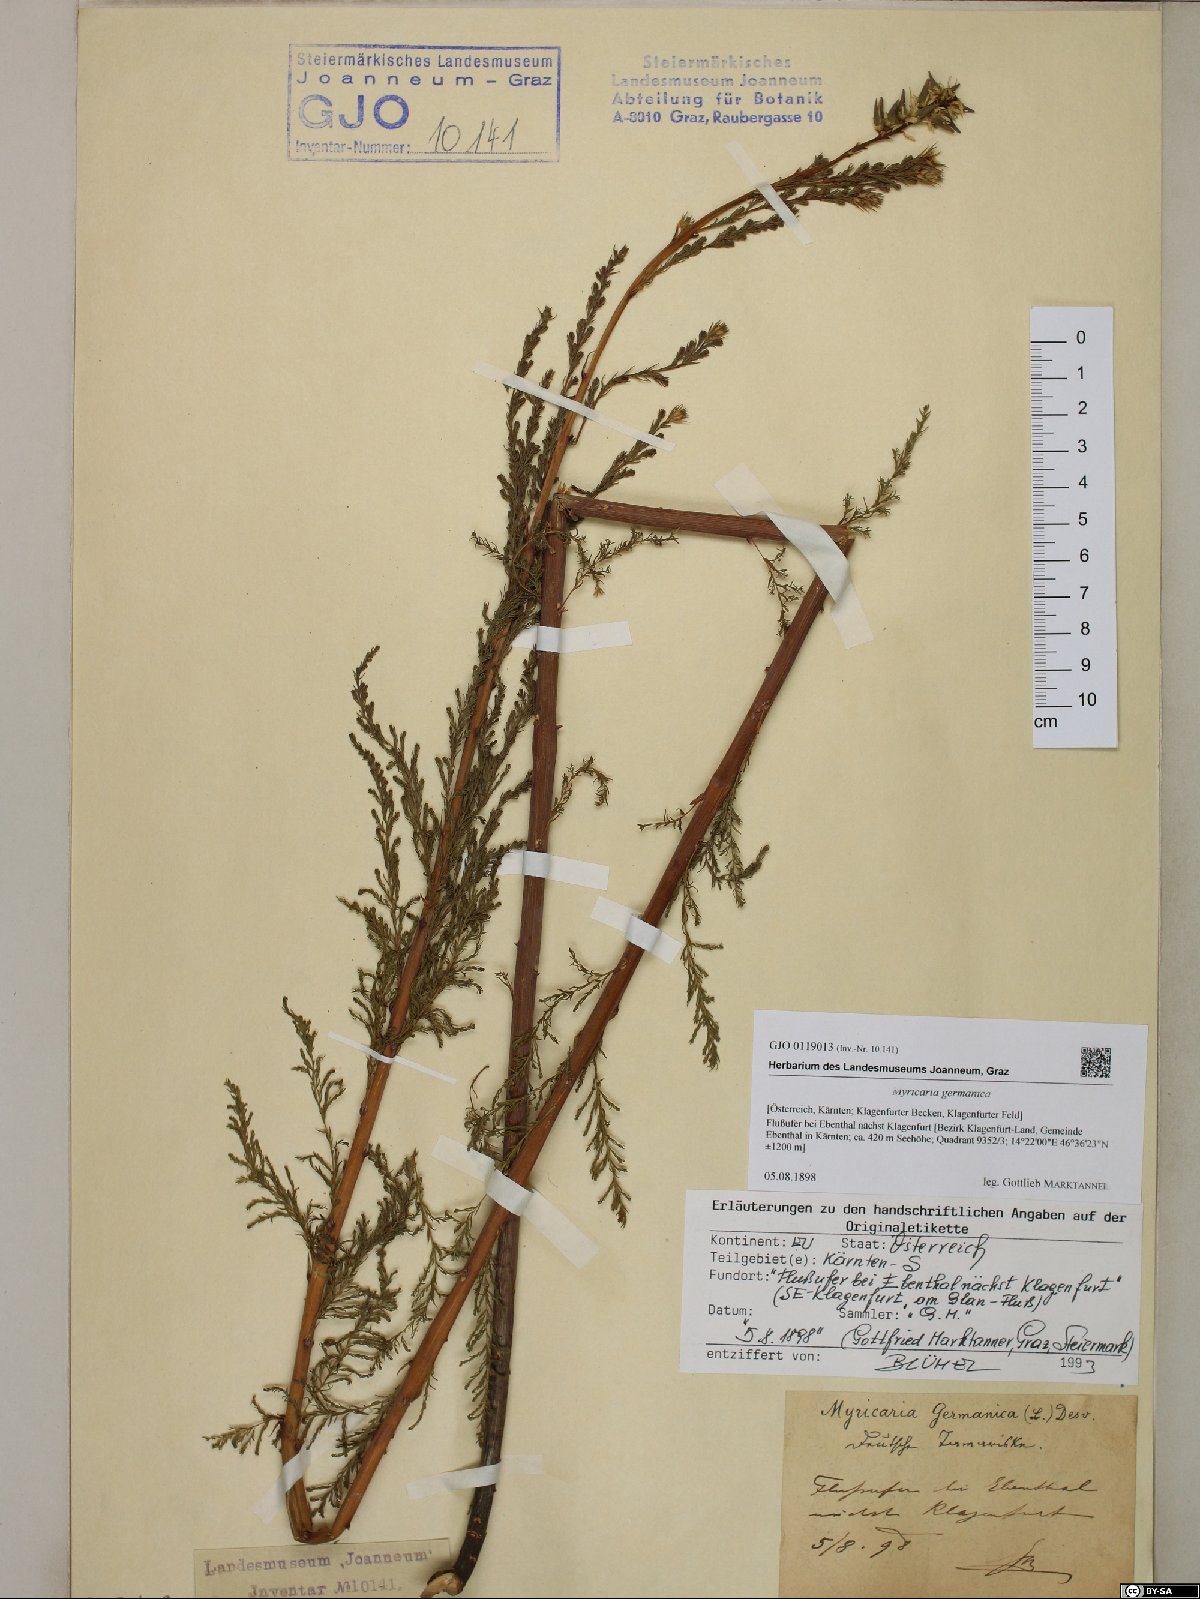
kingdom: Plantae
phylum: Tracheophyta
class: Magnoliopsida
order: Caryophyllales
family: Tamaricaceae
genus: Myricaria
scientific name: Myricaria germanica
